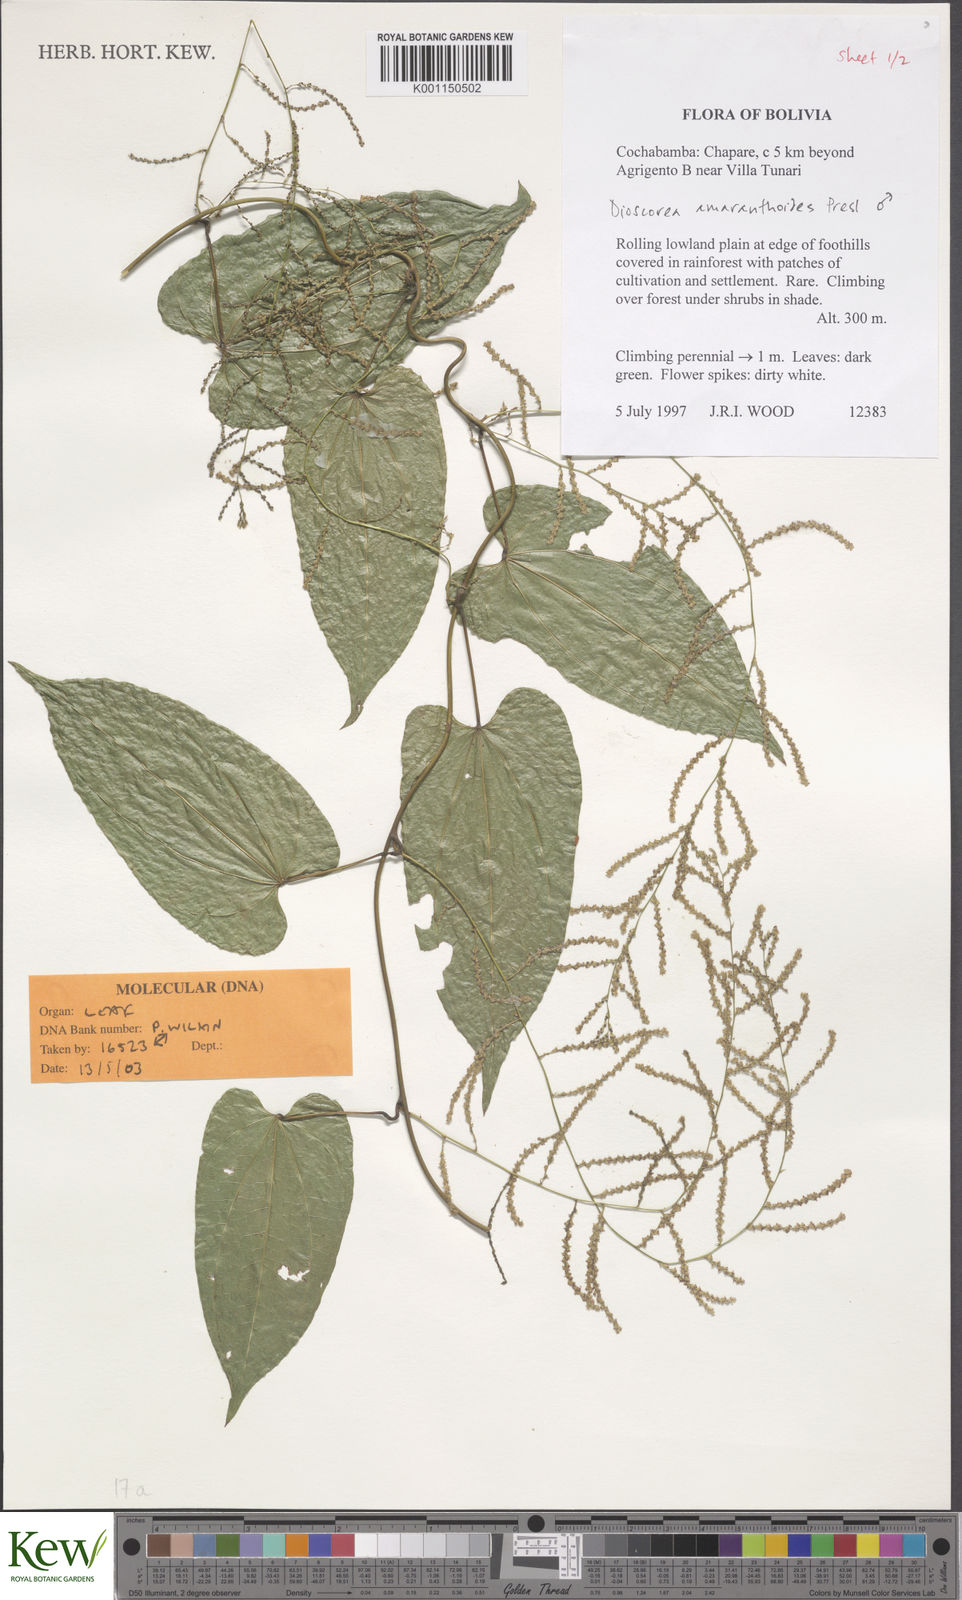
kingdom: Plantae
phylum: Tracheophyta
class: Liliopsida
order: Dioscoreales
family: Dioscoreaceae
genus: Dioscorea
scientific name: Dioscorea amaranthoides
